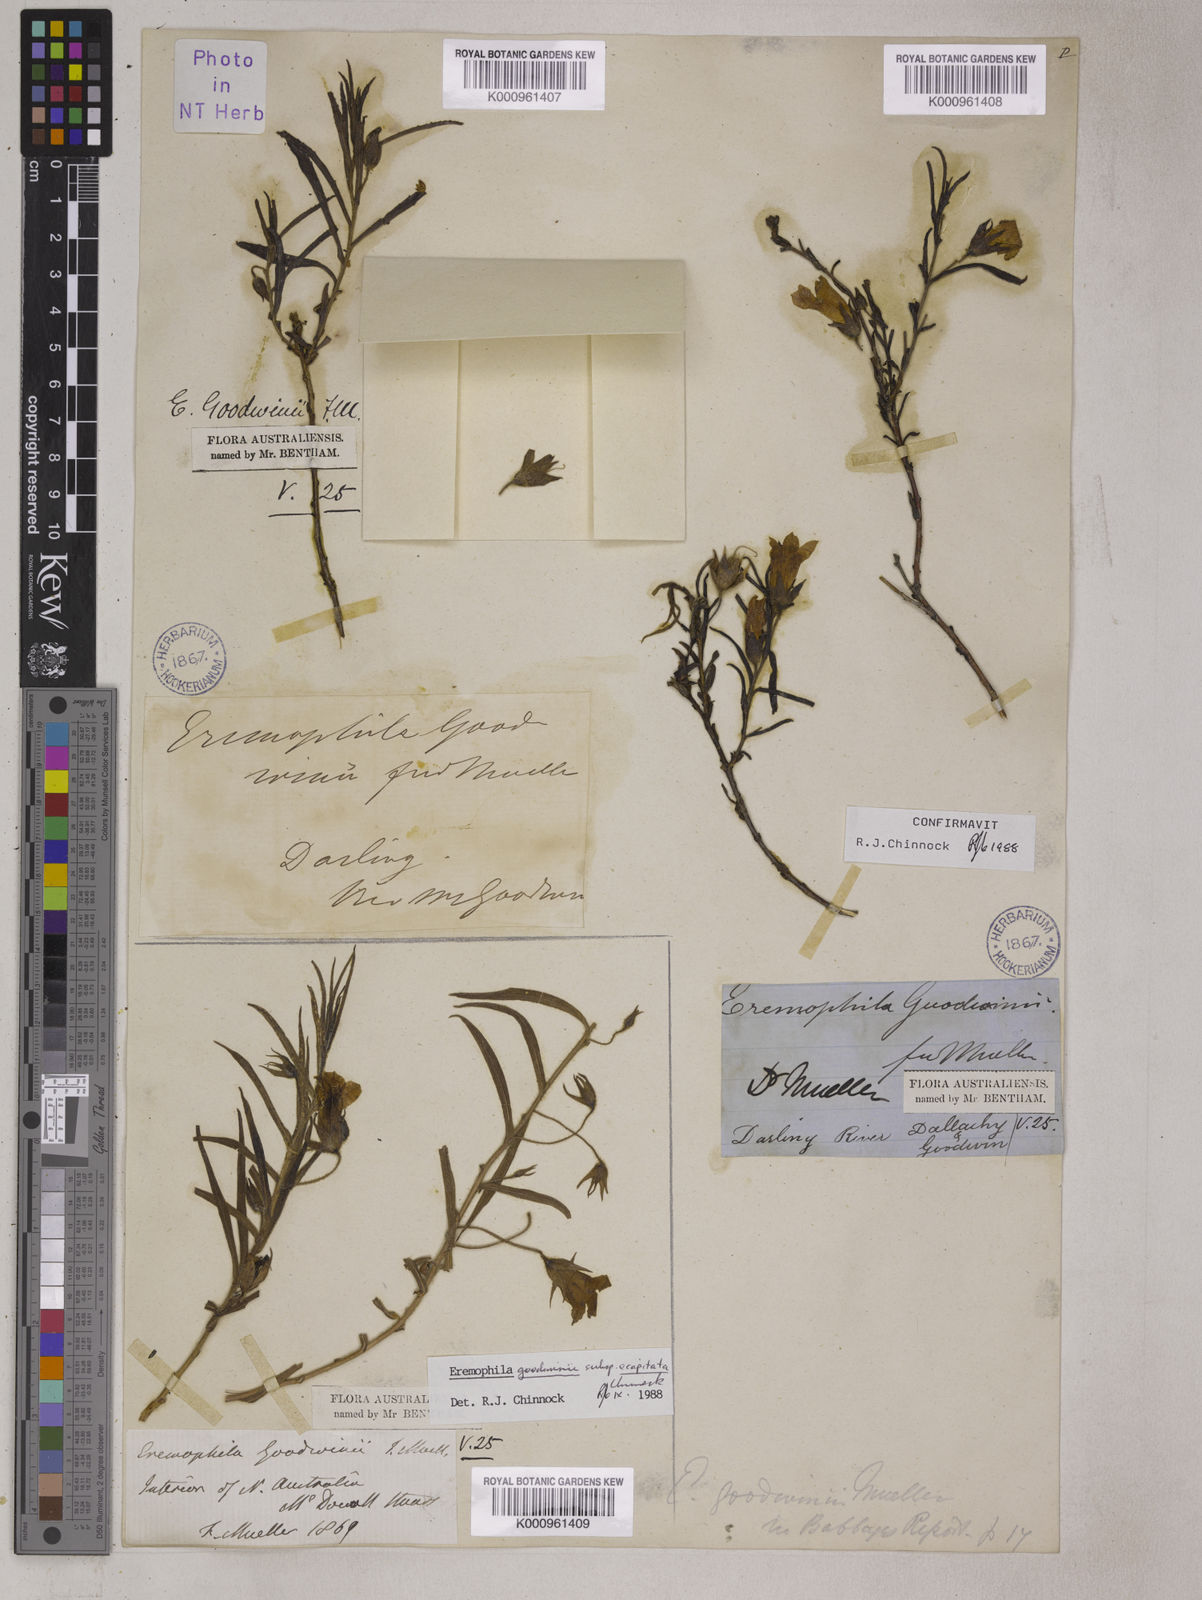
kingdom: Plantae
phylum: Tracheophyta
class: Magnoliopsida
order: Lamiales
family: Scrophulariaceae
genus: Eremophila
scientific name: Eremophila goodwinii
